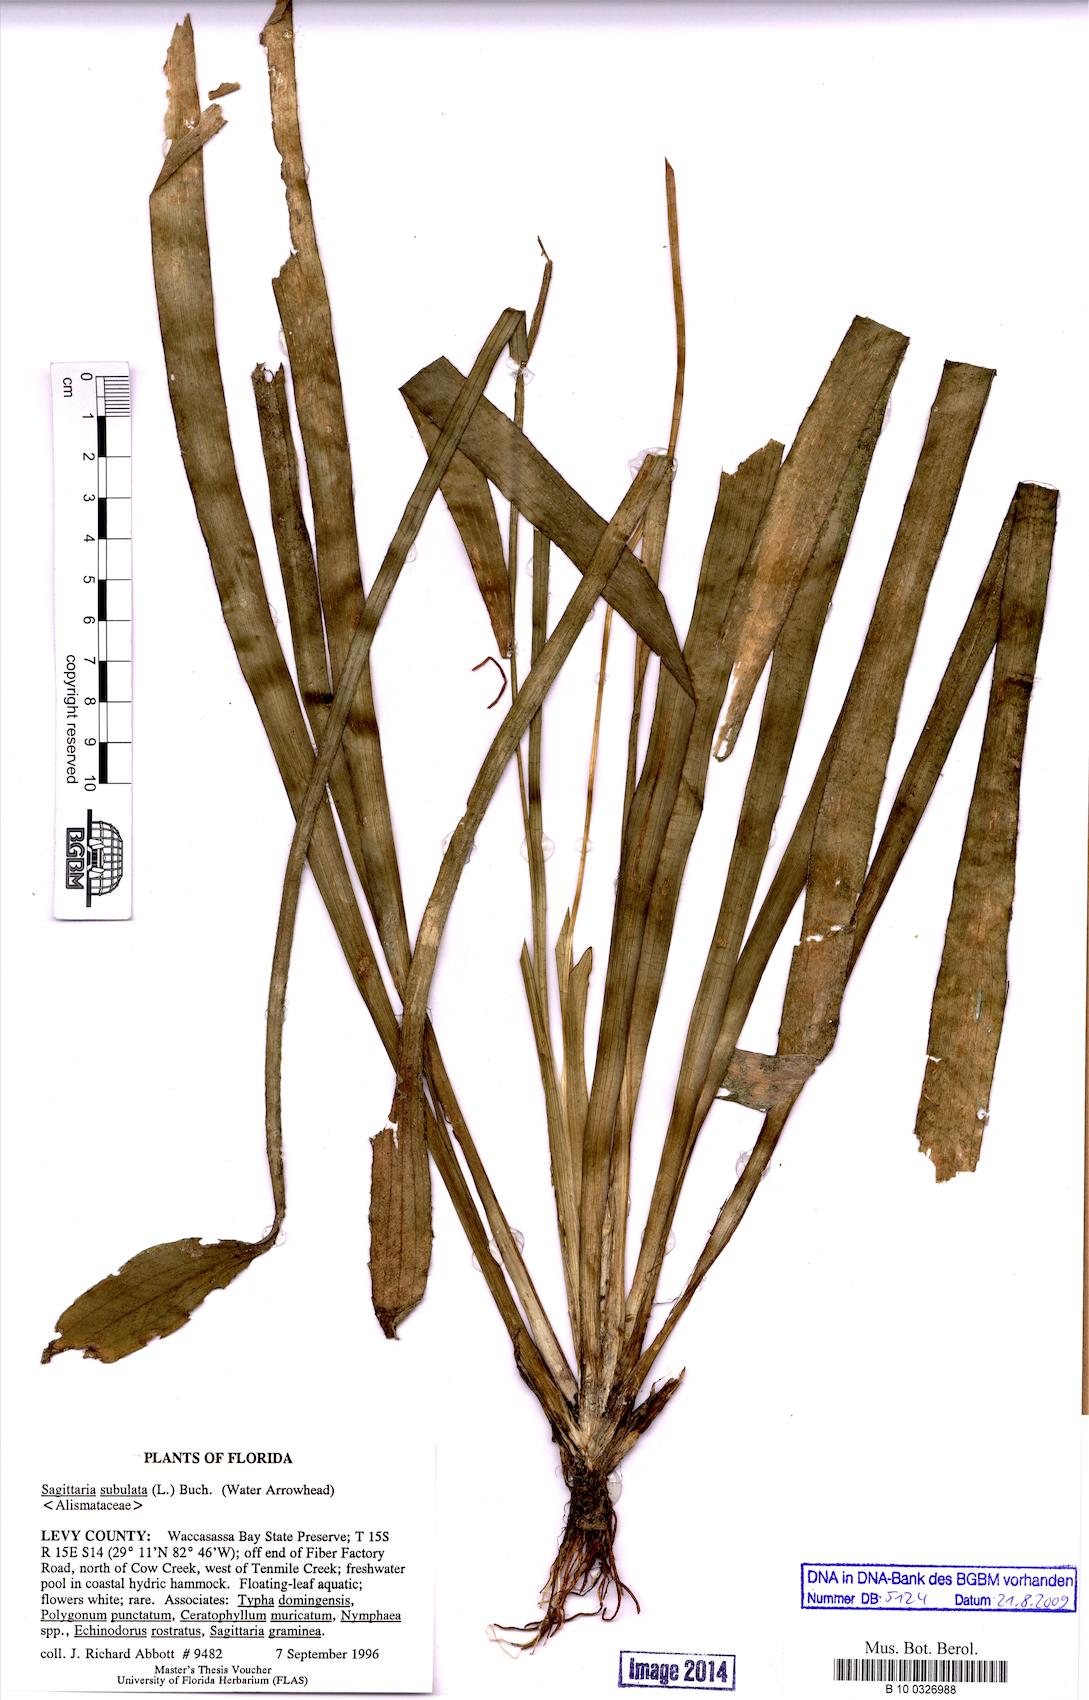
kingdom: Plantae
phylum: Tracheophyta
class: Liliopsida
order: Alismatales
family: Alismataceae
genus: Sagittaria
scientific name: Sagittaria subulata
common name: Narrow-leaved arrowhead
